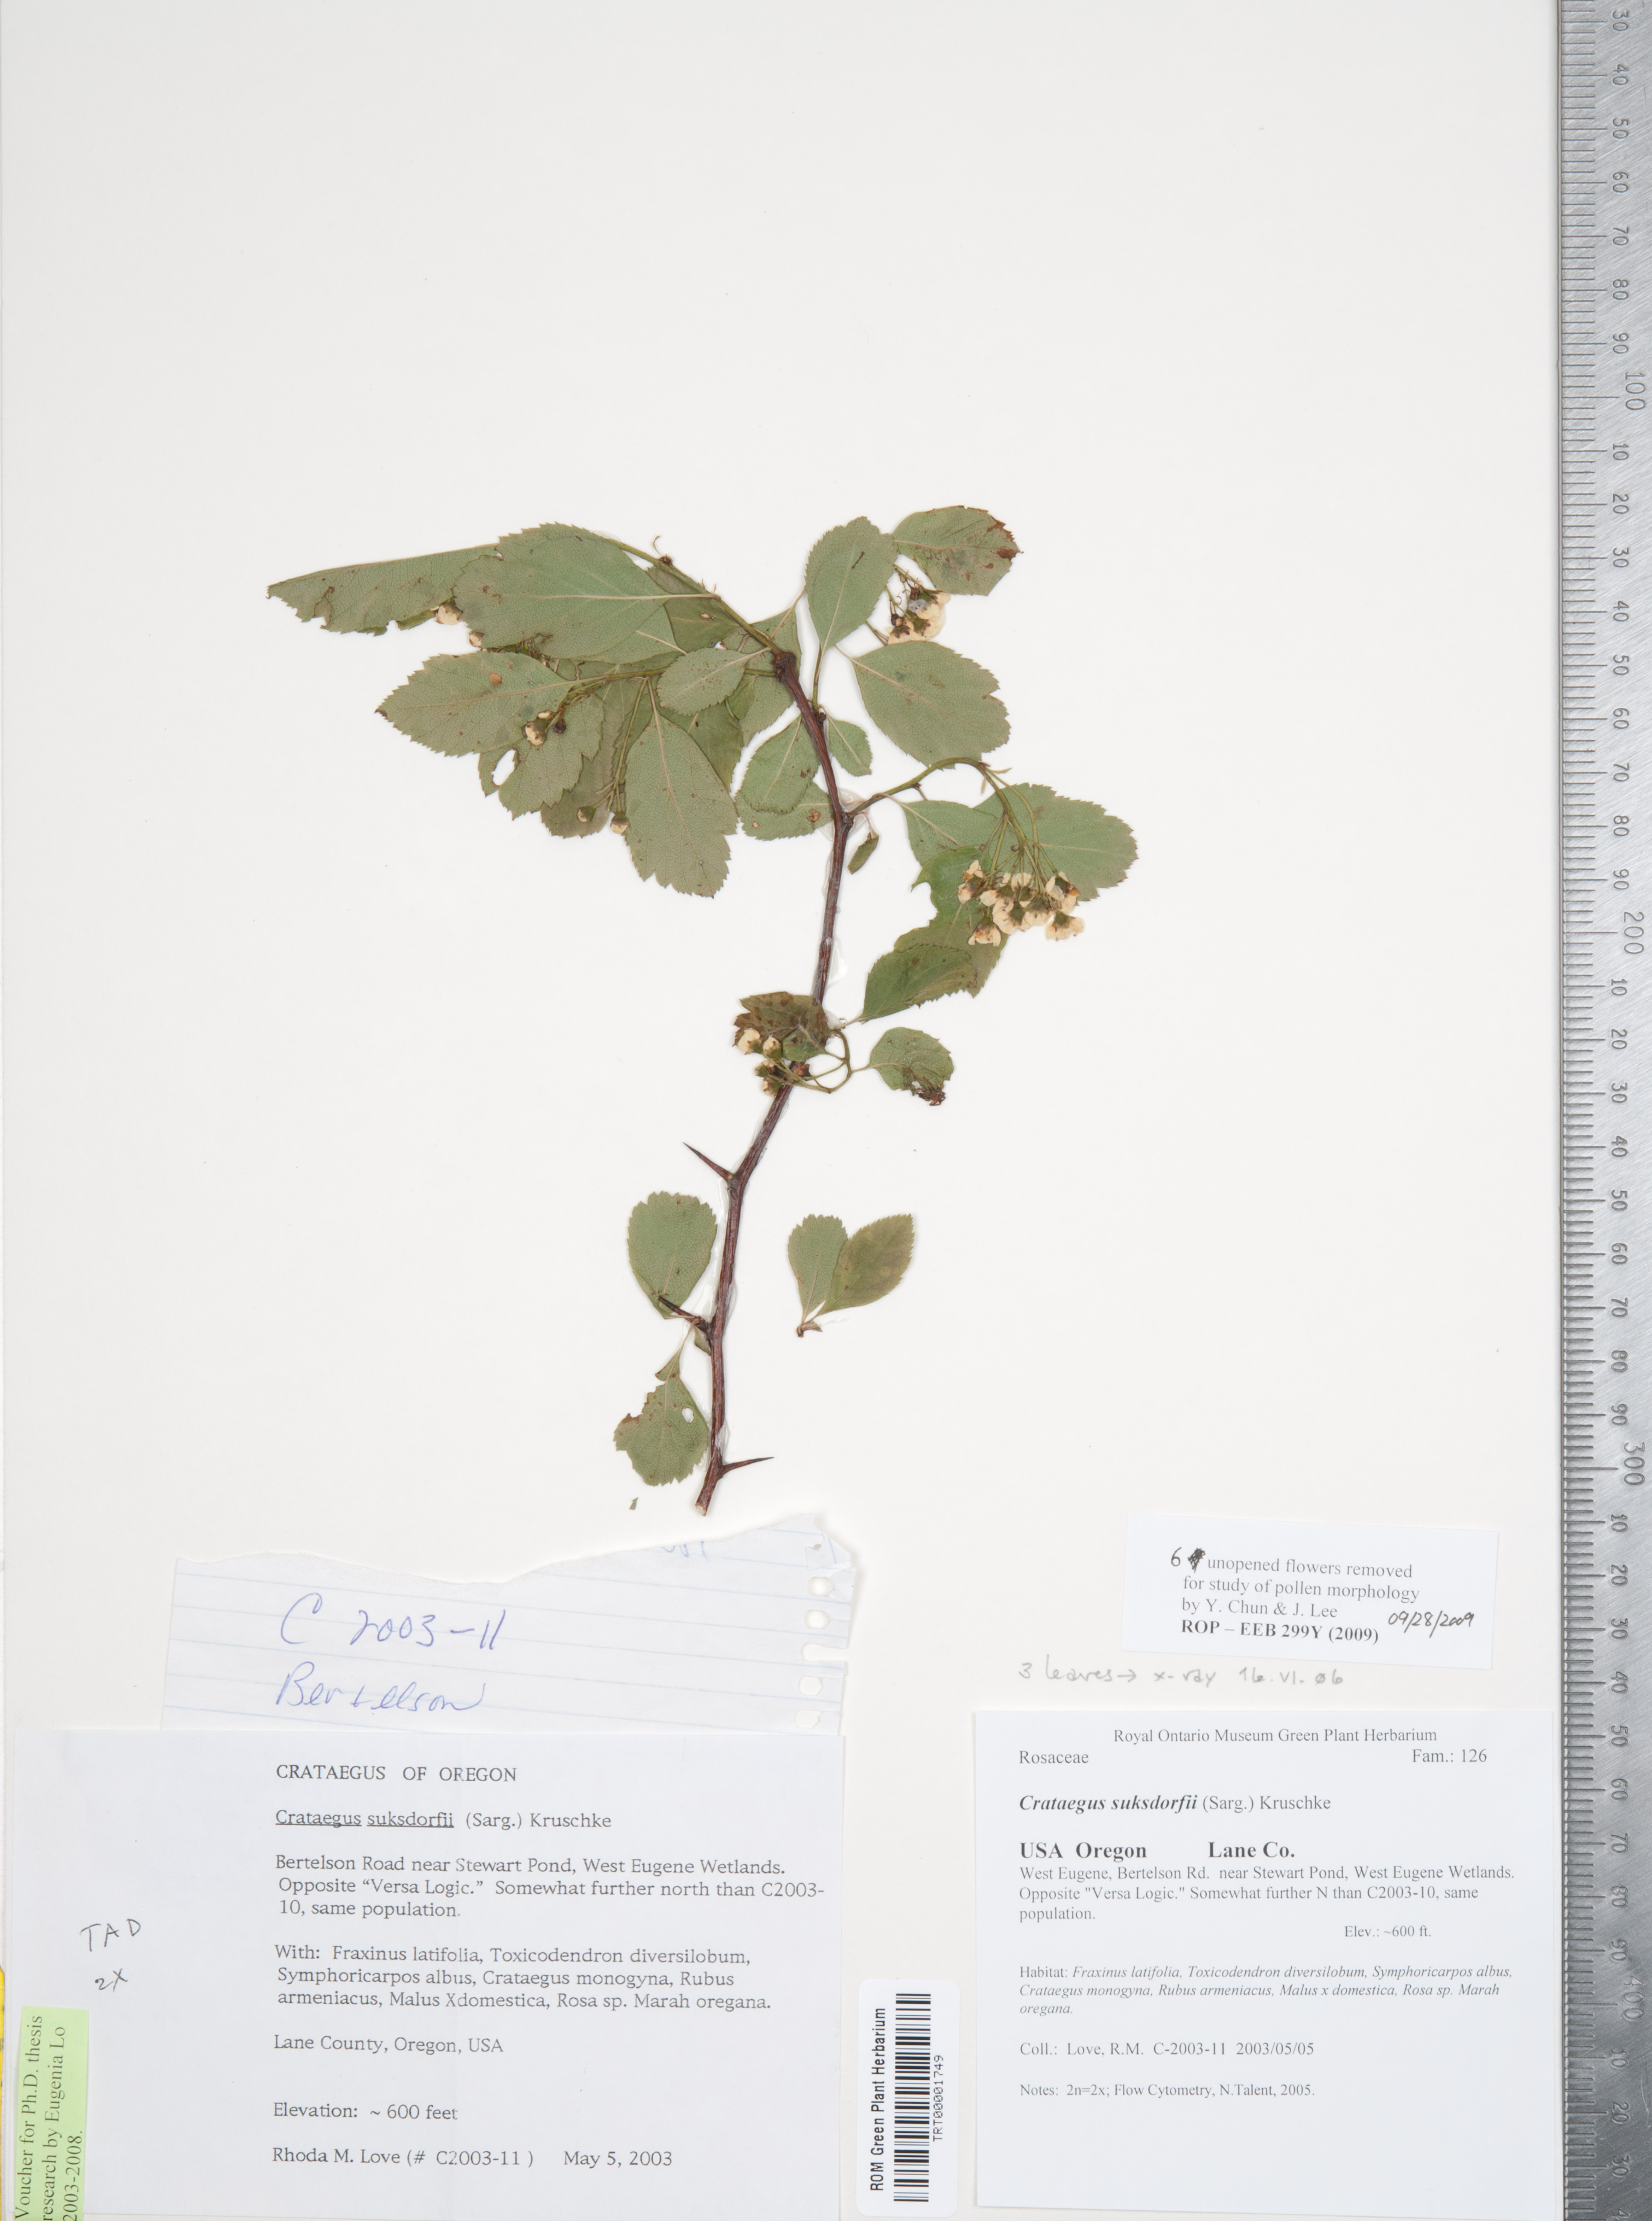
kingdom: Plantae
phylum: Tracheophyta
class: Magnoliopsida
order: Rosales
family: Rosaceae
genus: Crataegus
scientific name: Crataegus gaylussacia
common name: Huckleberry hawthorn
